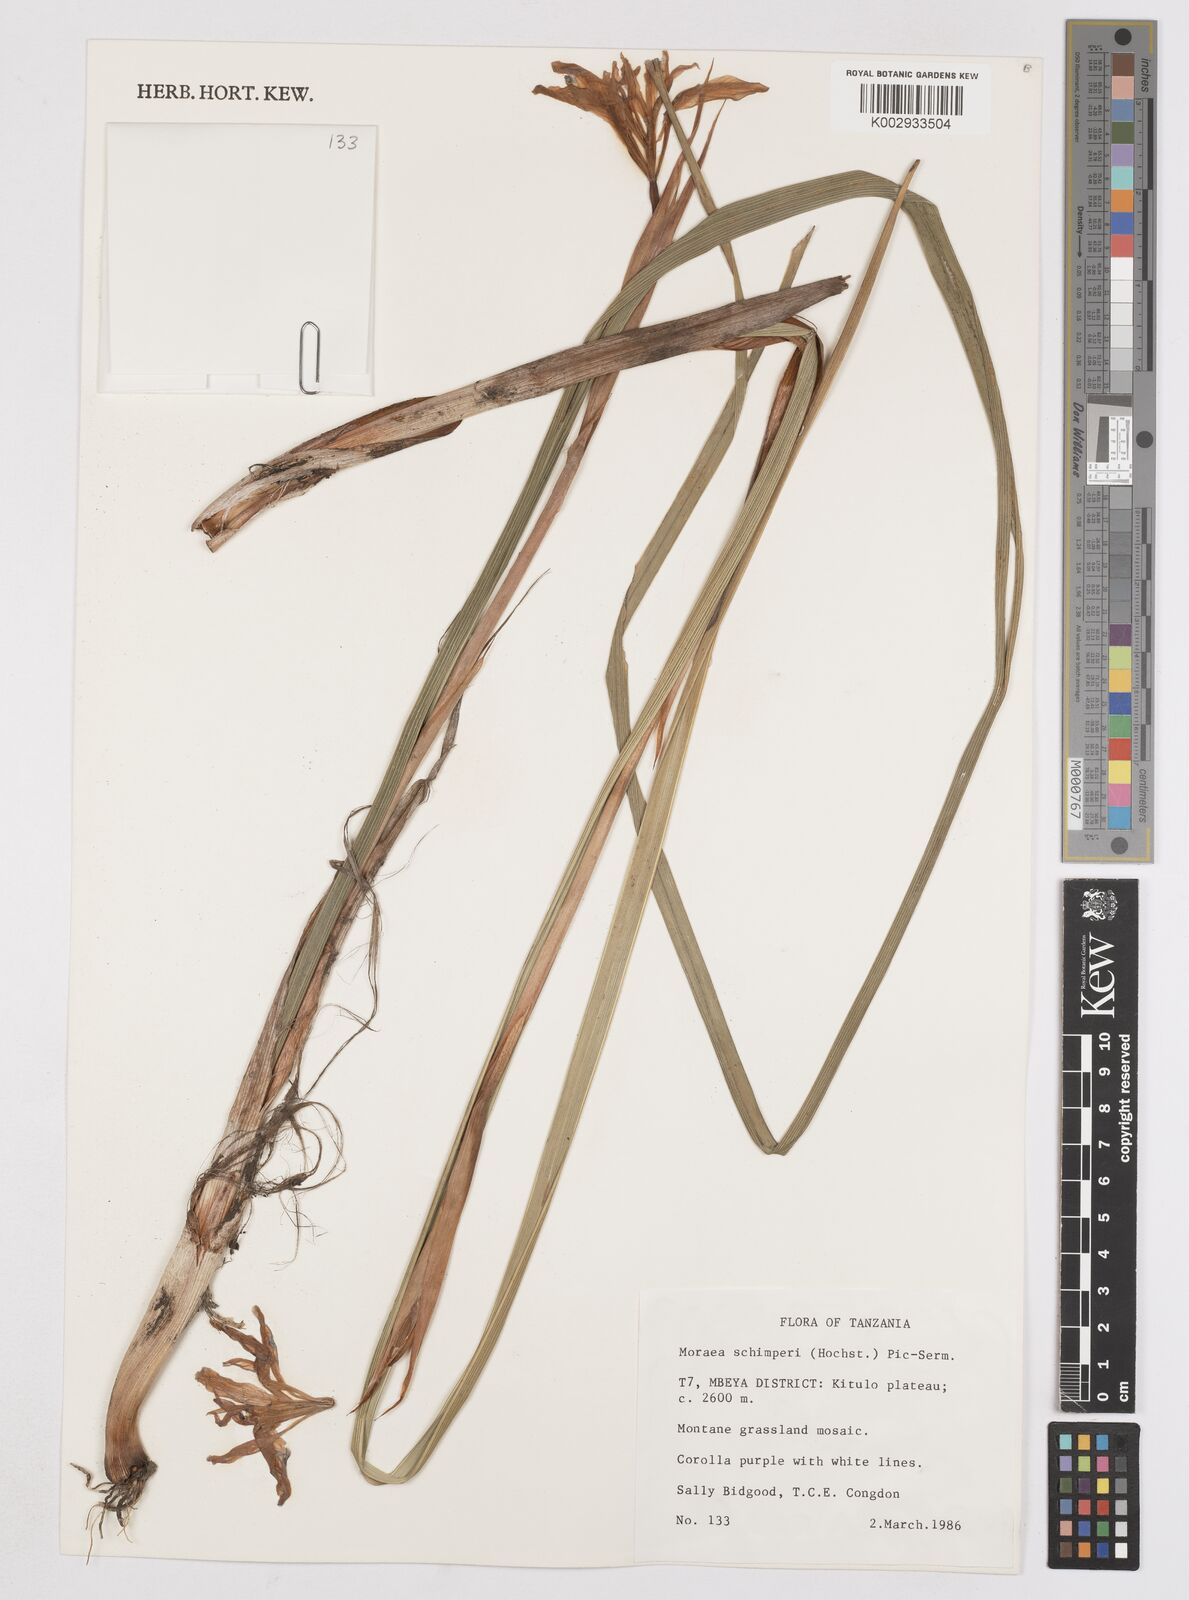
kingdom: Plantae
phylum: Tracheophyta
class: Liliopsida
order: Asparagales
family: Iridaceae
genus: Moraea
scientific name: Moraea schimperi
